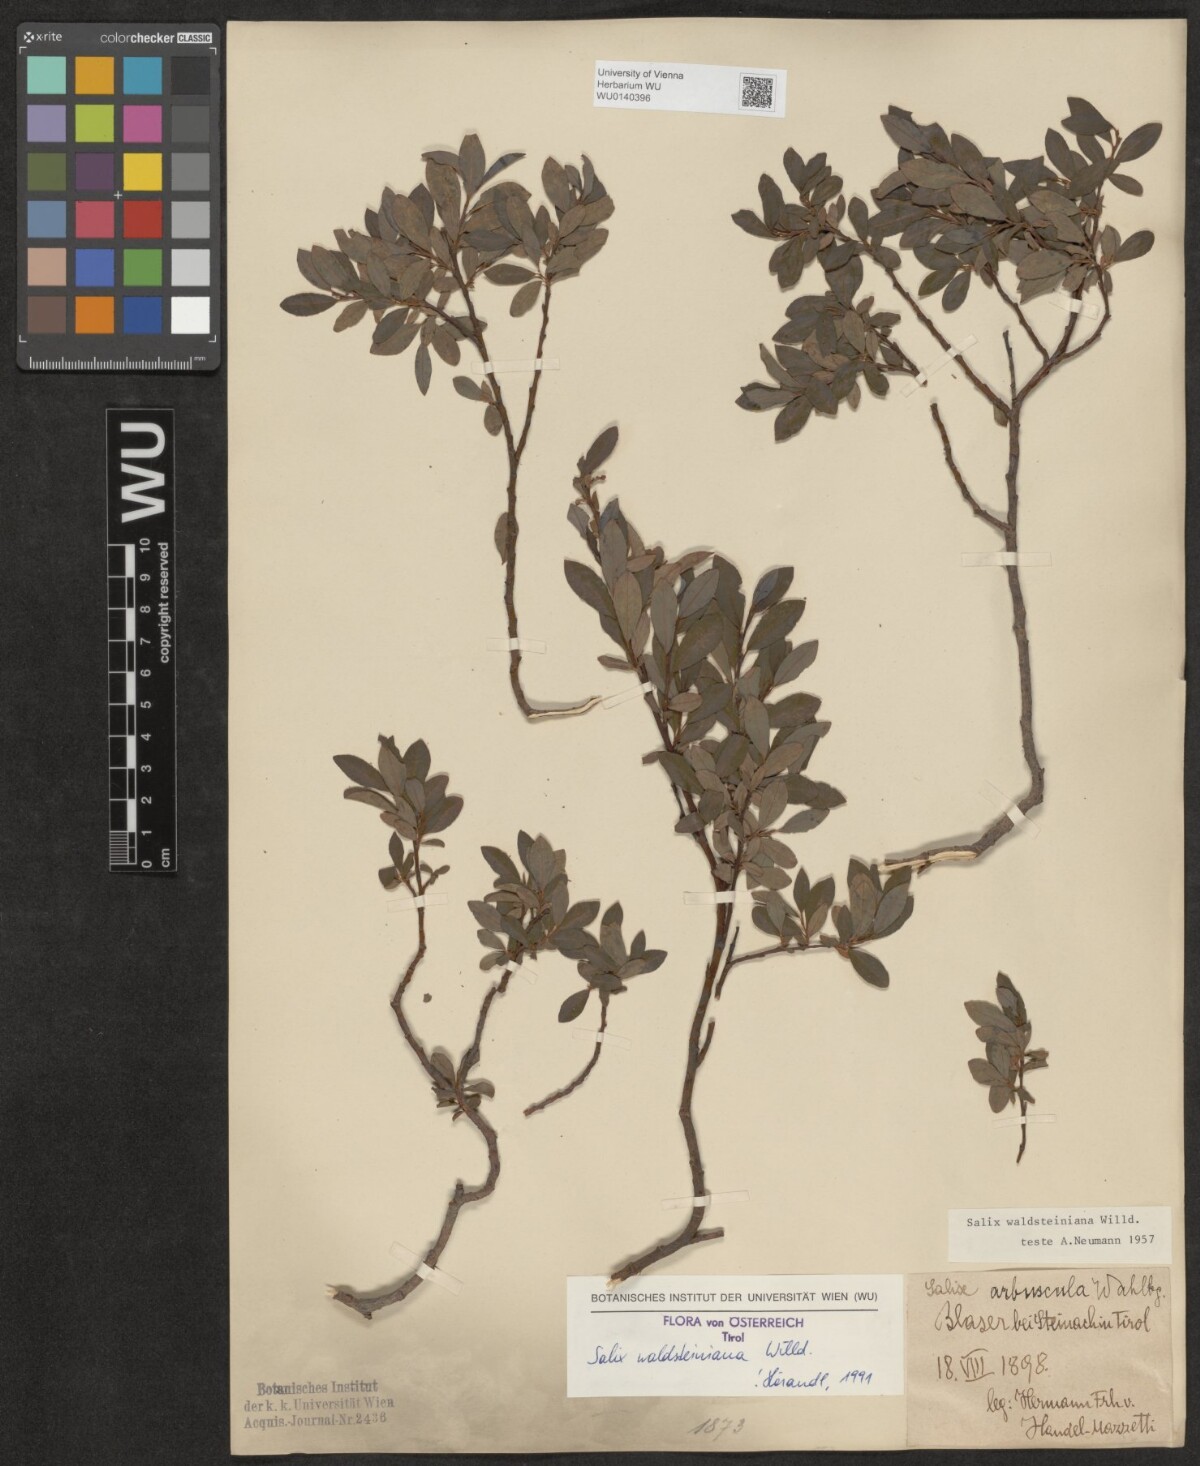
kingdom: Plantae
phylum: Tracheophyta
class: Magnoliopsida
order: Malpighiales
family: Salicaceae
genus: Salix
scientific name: Salix waldsteiniana
